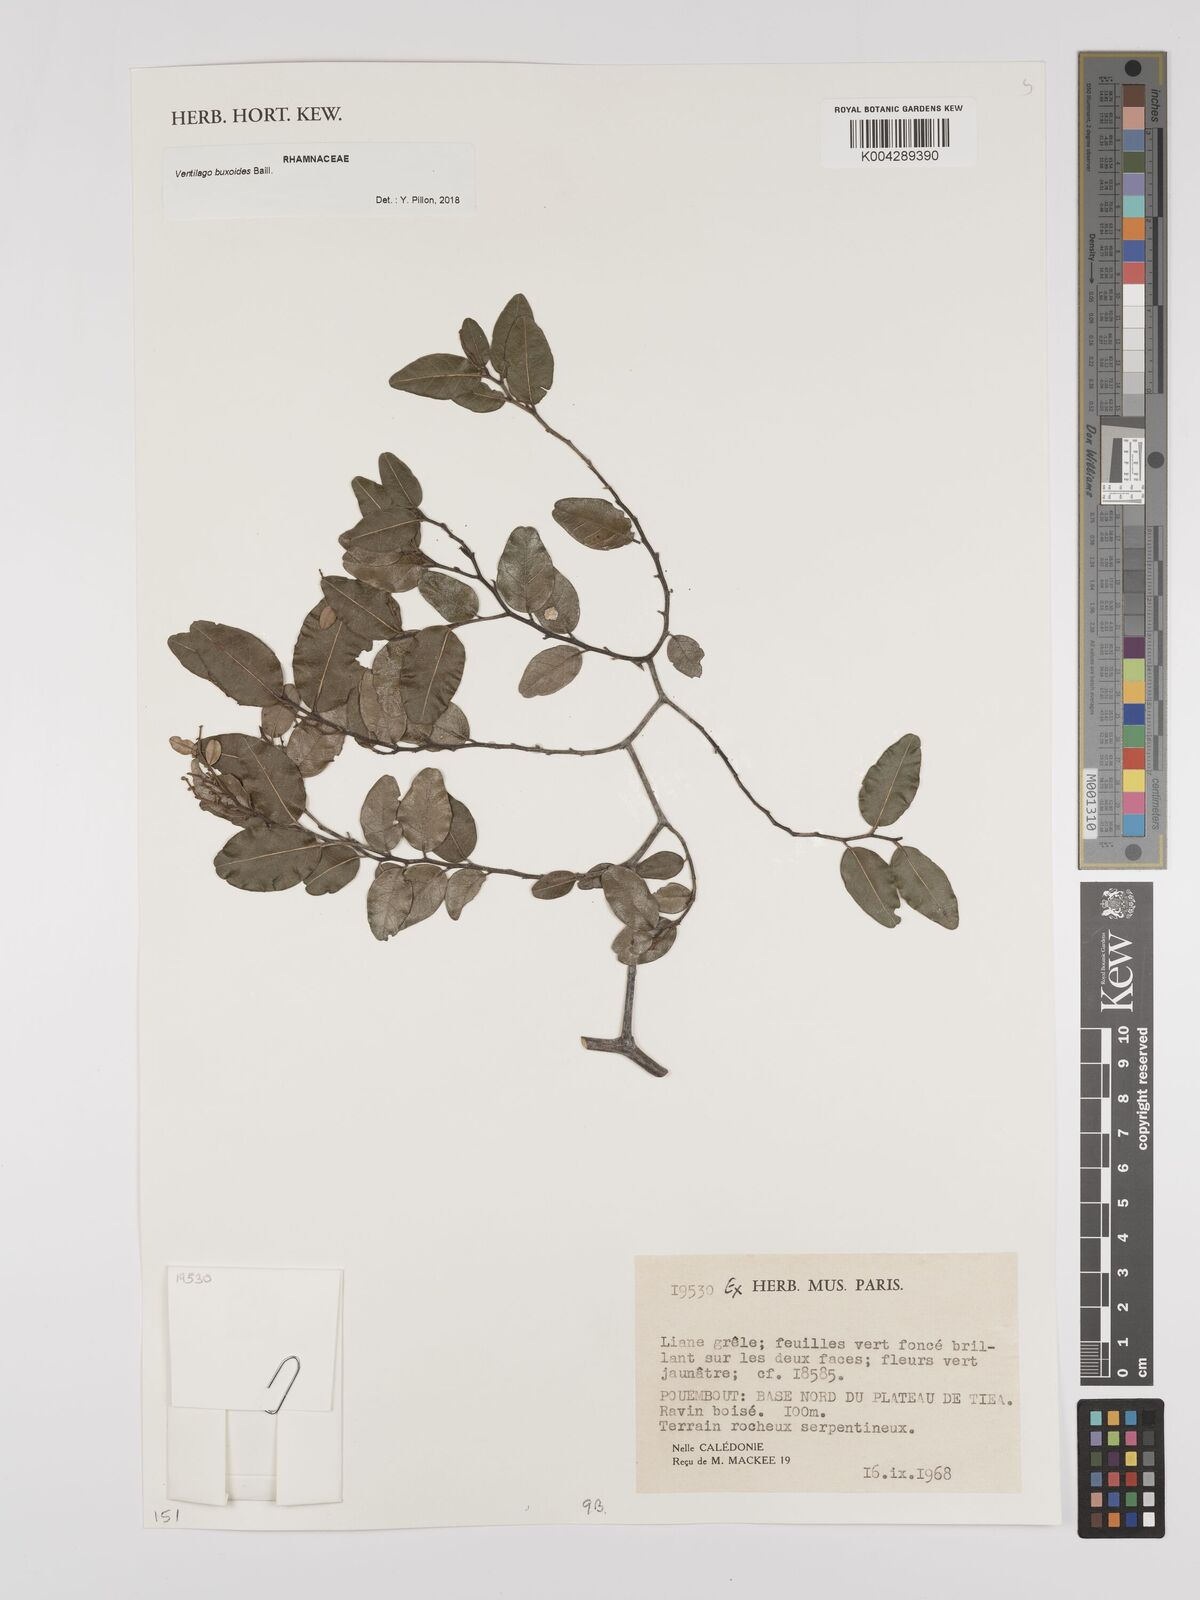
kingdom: Plantae
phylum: Tracheophyta
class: Magnoliopsida
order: Rosales
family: Rhamnaceae
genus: Ventilago
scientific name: Ventilago buxoides
